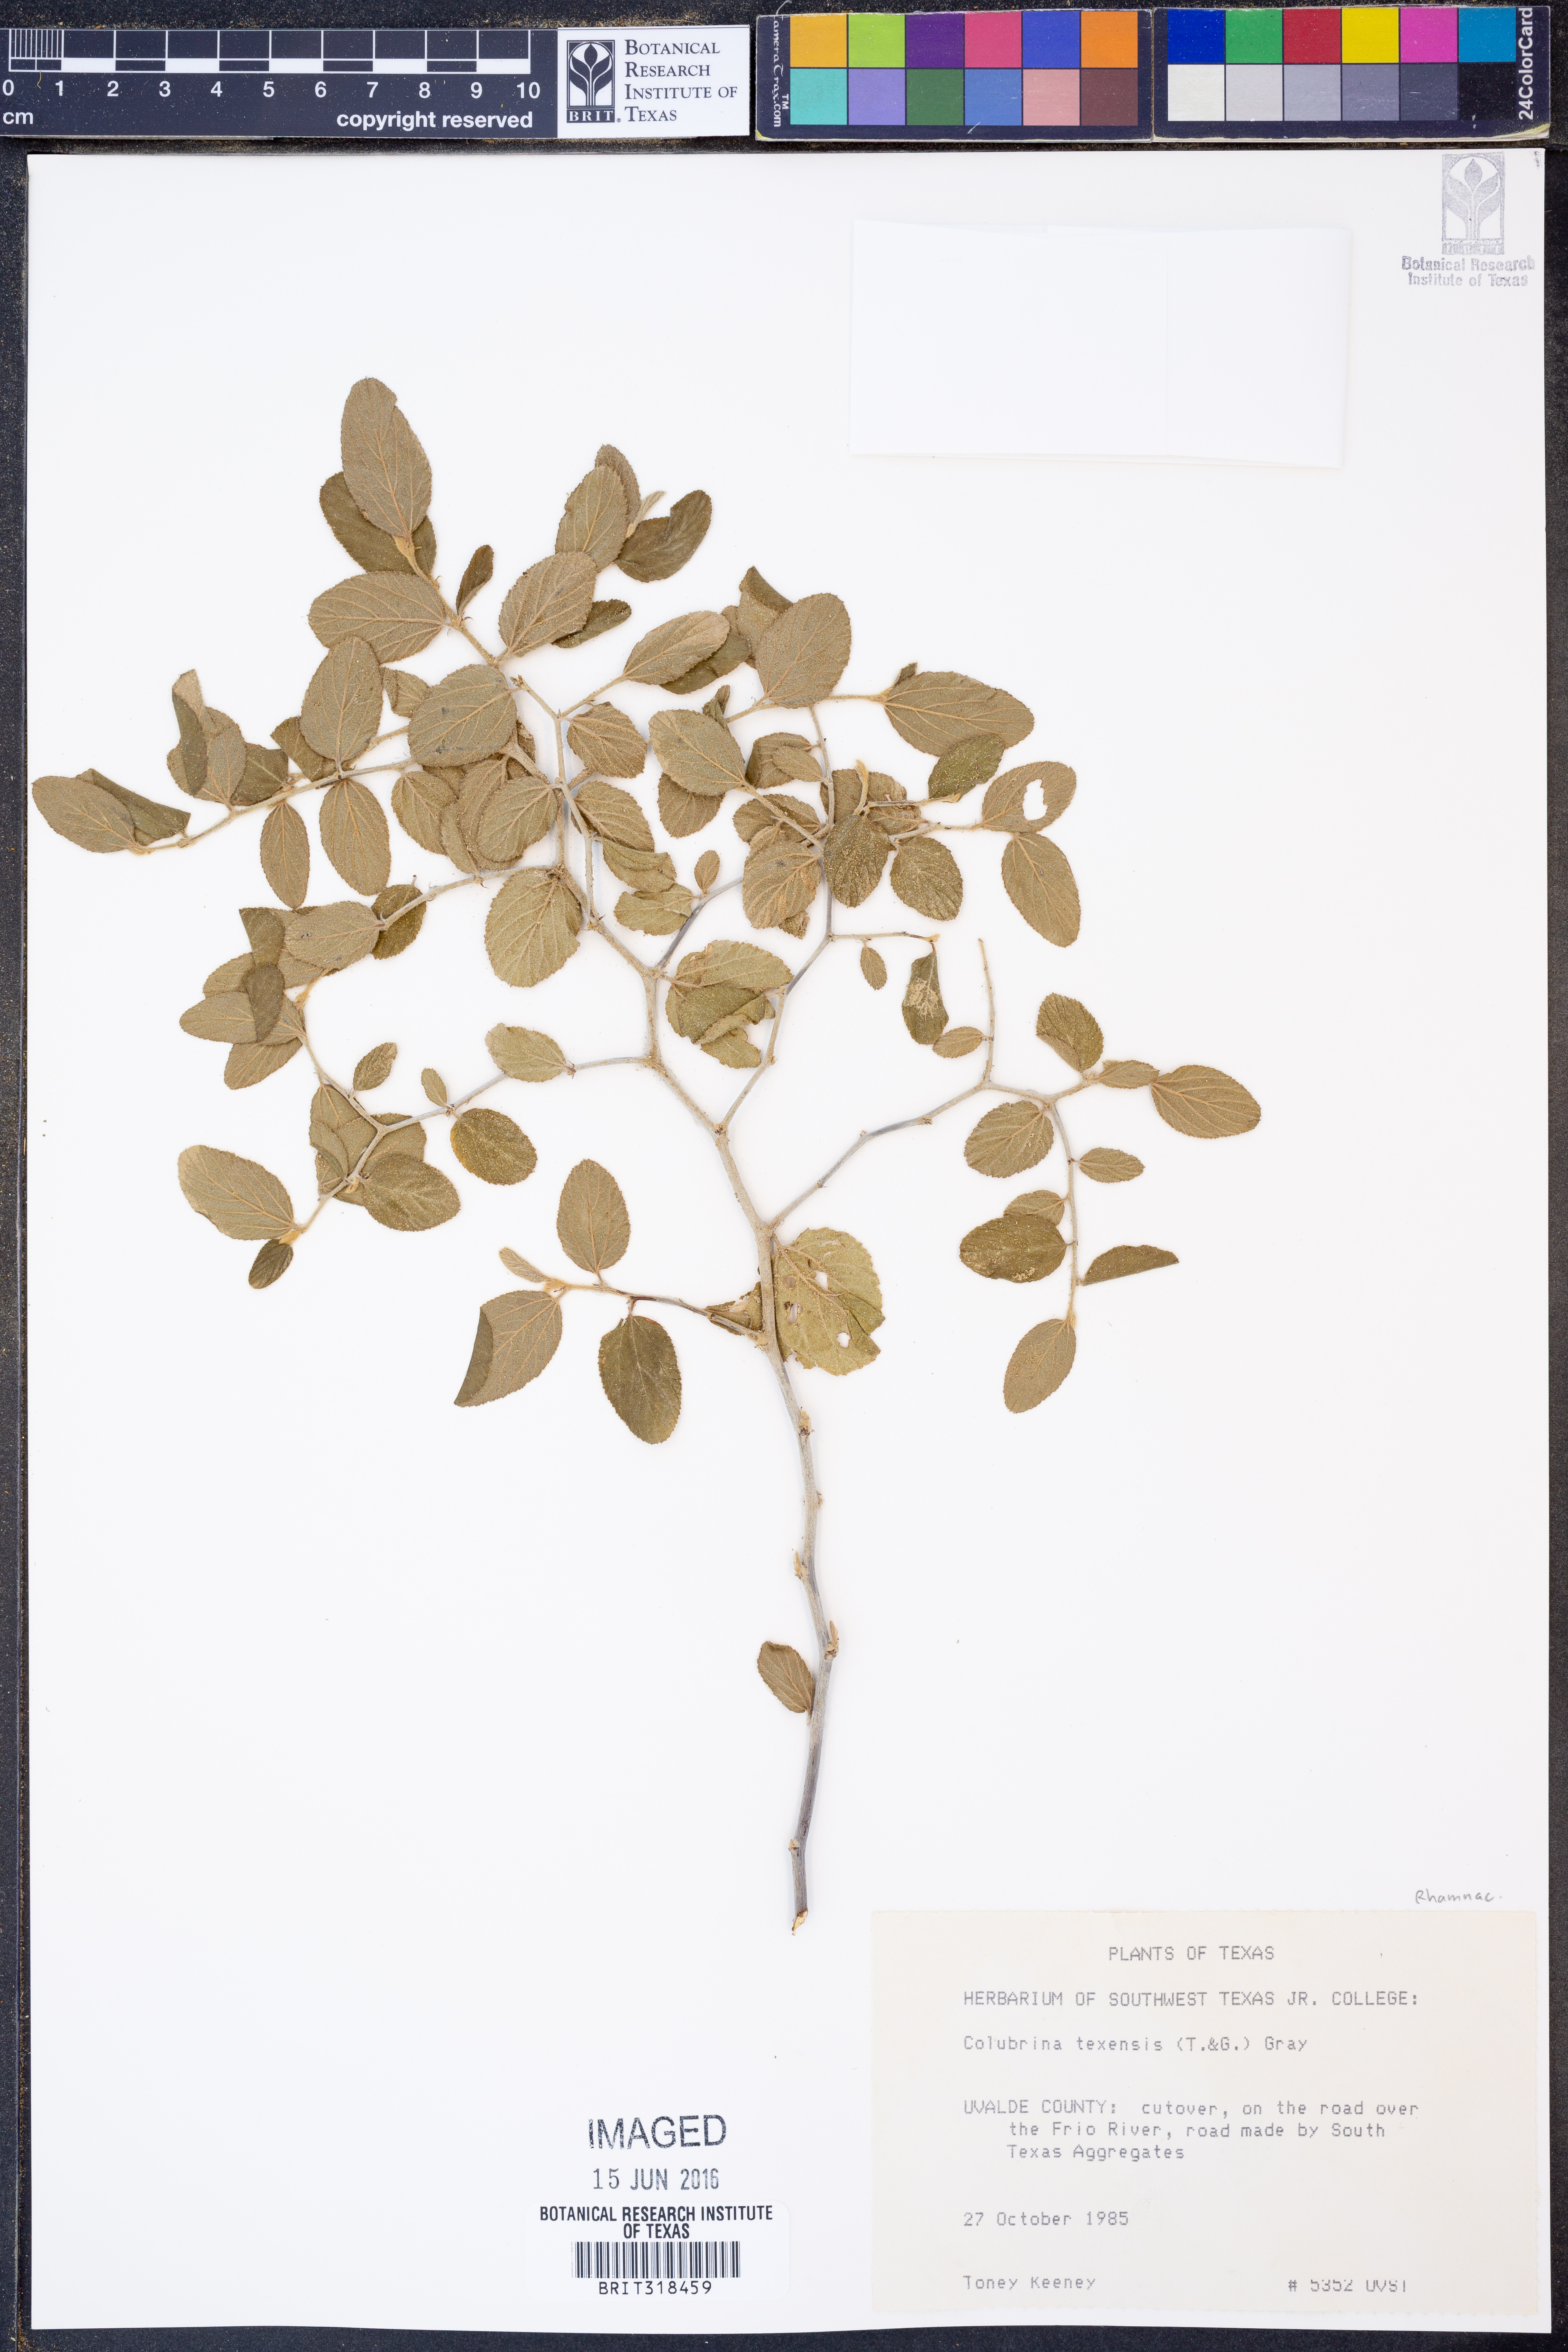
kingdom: Plantae
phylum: Tracheophyta
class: Magnoliopsida
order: Rosales
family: Rhamnaceae
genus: Colubrina
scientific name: Colubrina texensis
